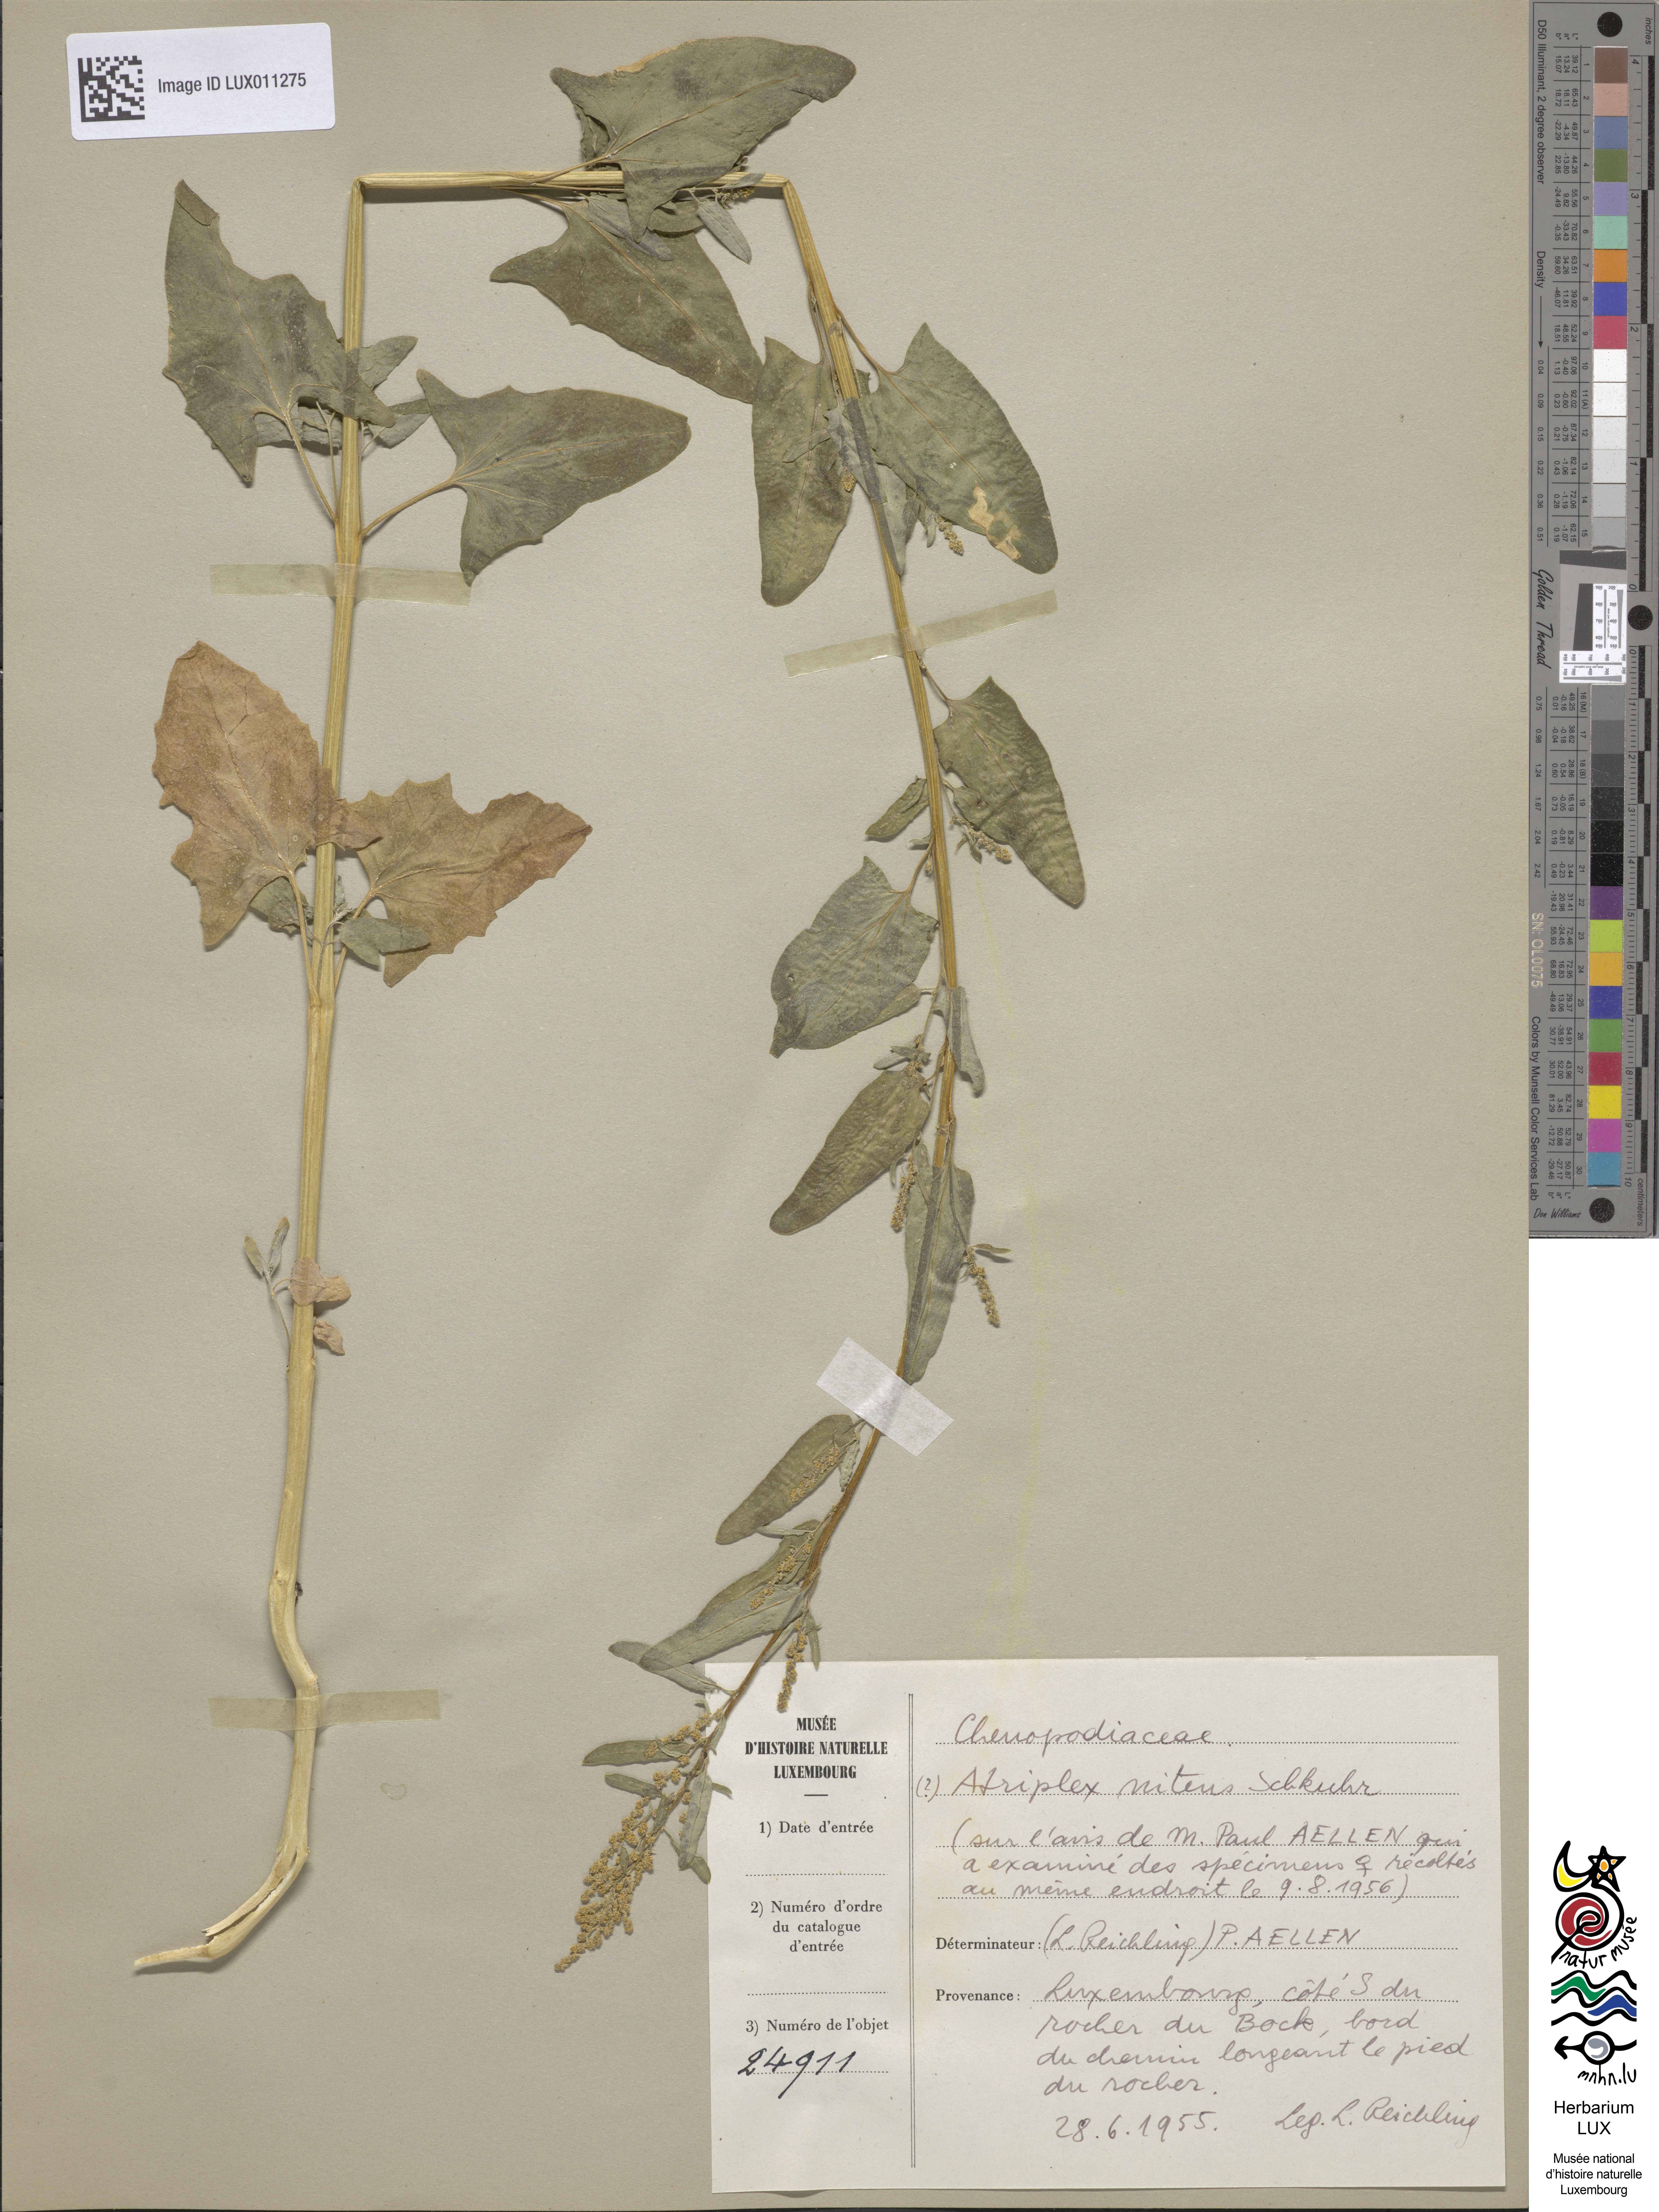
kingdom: Plantae
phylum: Tracheophyta
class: Magnoliopsida
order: Caryophyllales
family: Amaranthaceae
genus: Atriplex
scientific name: Atriplex
